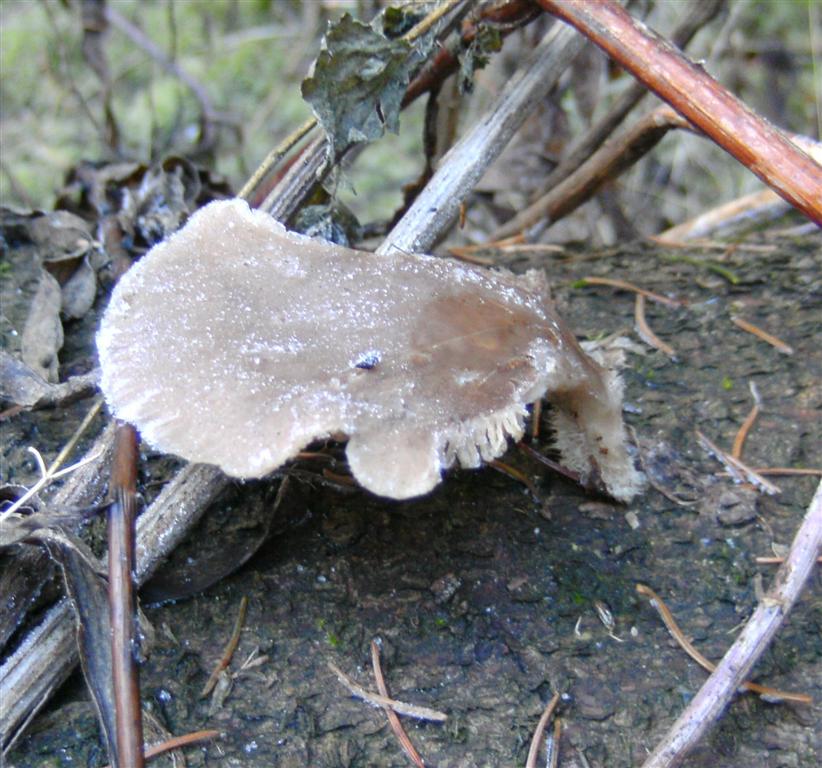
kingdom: Fungi
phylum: Basidiomycota
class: Agaricomycetes
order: Agaricales
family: Pleurotaceae
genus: Pleurotus
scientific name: Pleurotus ostreatus
